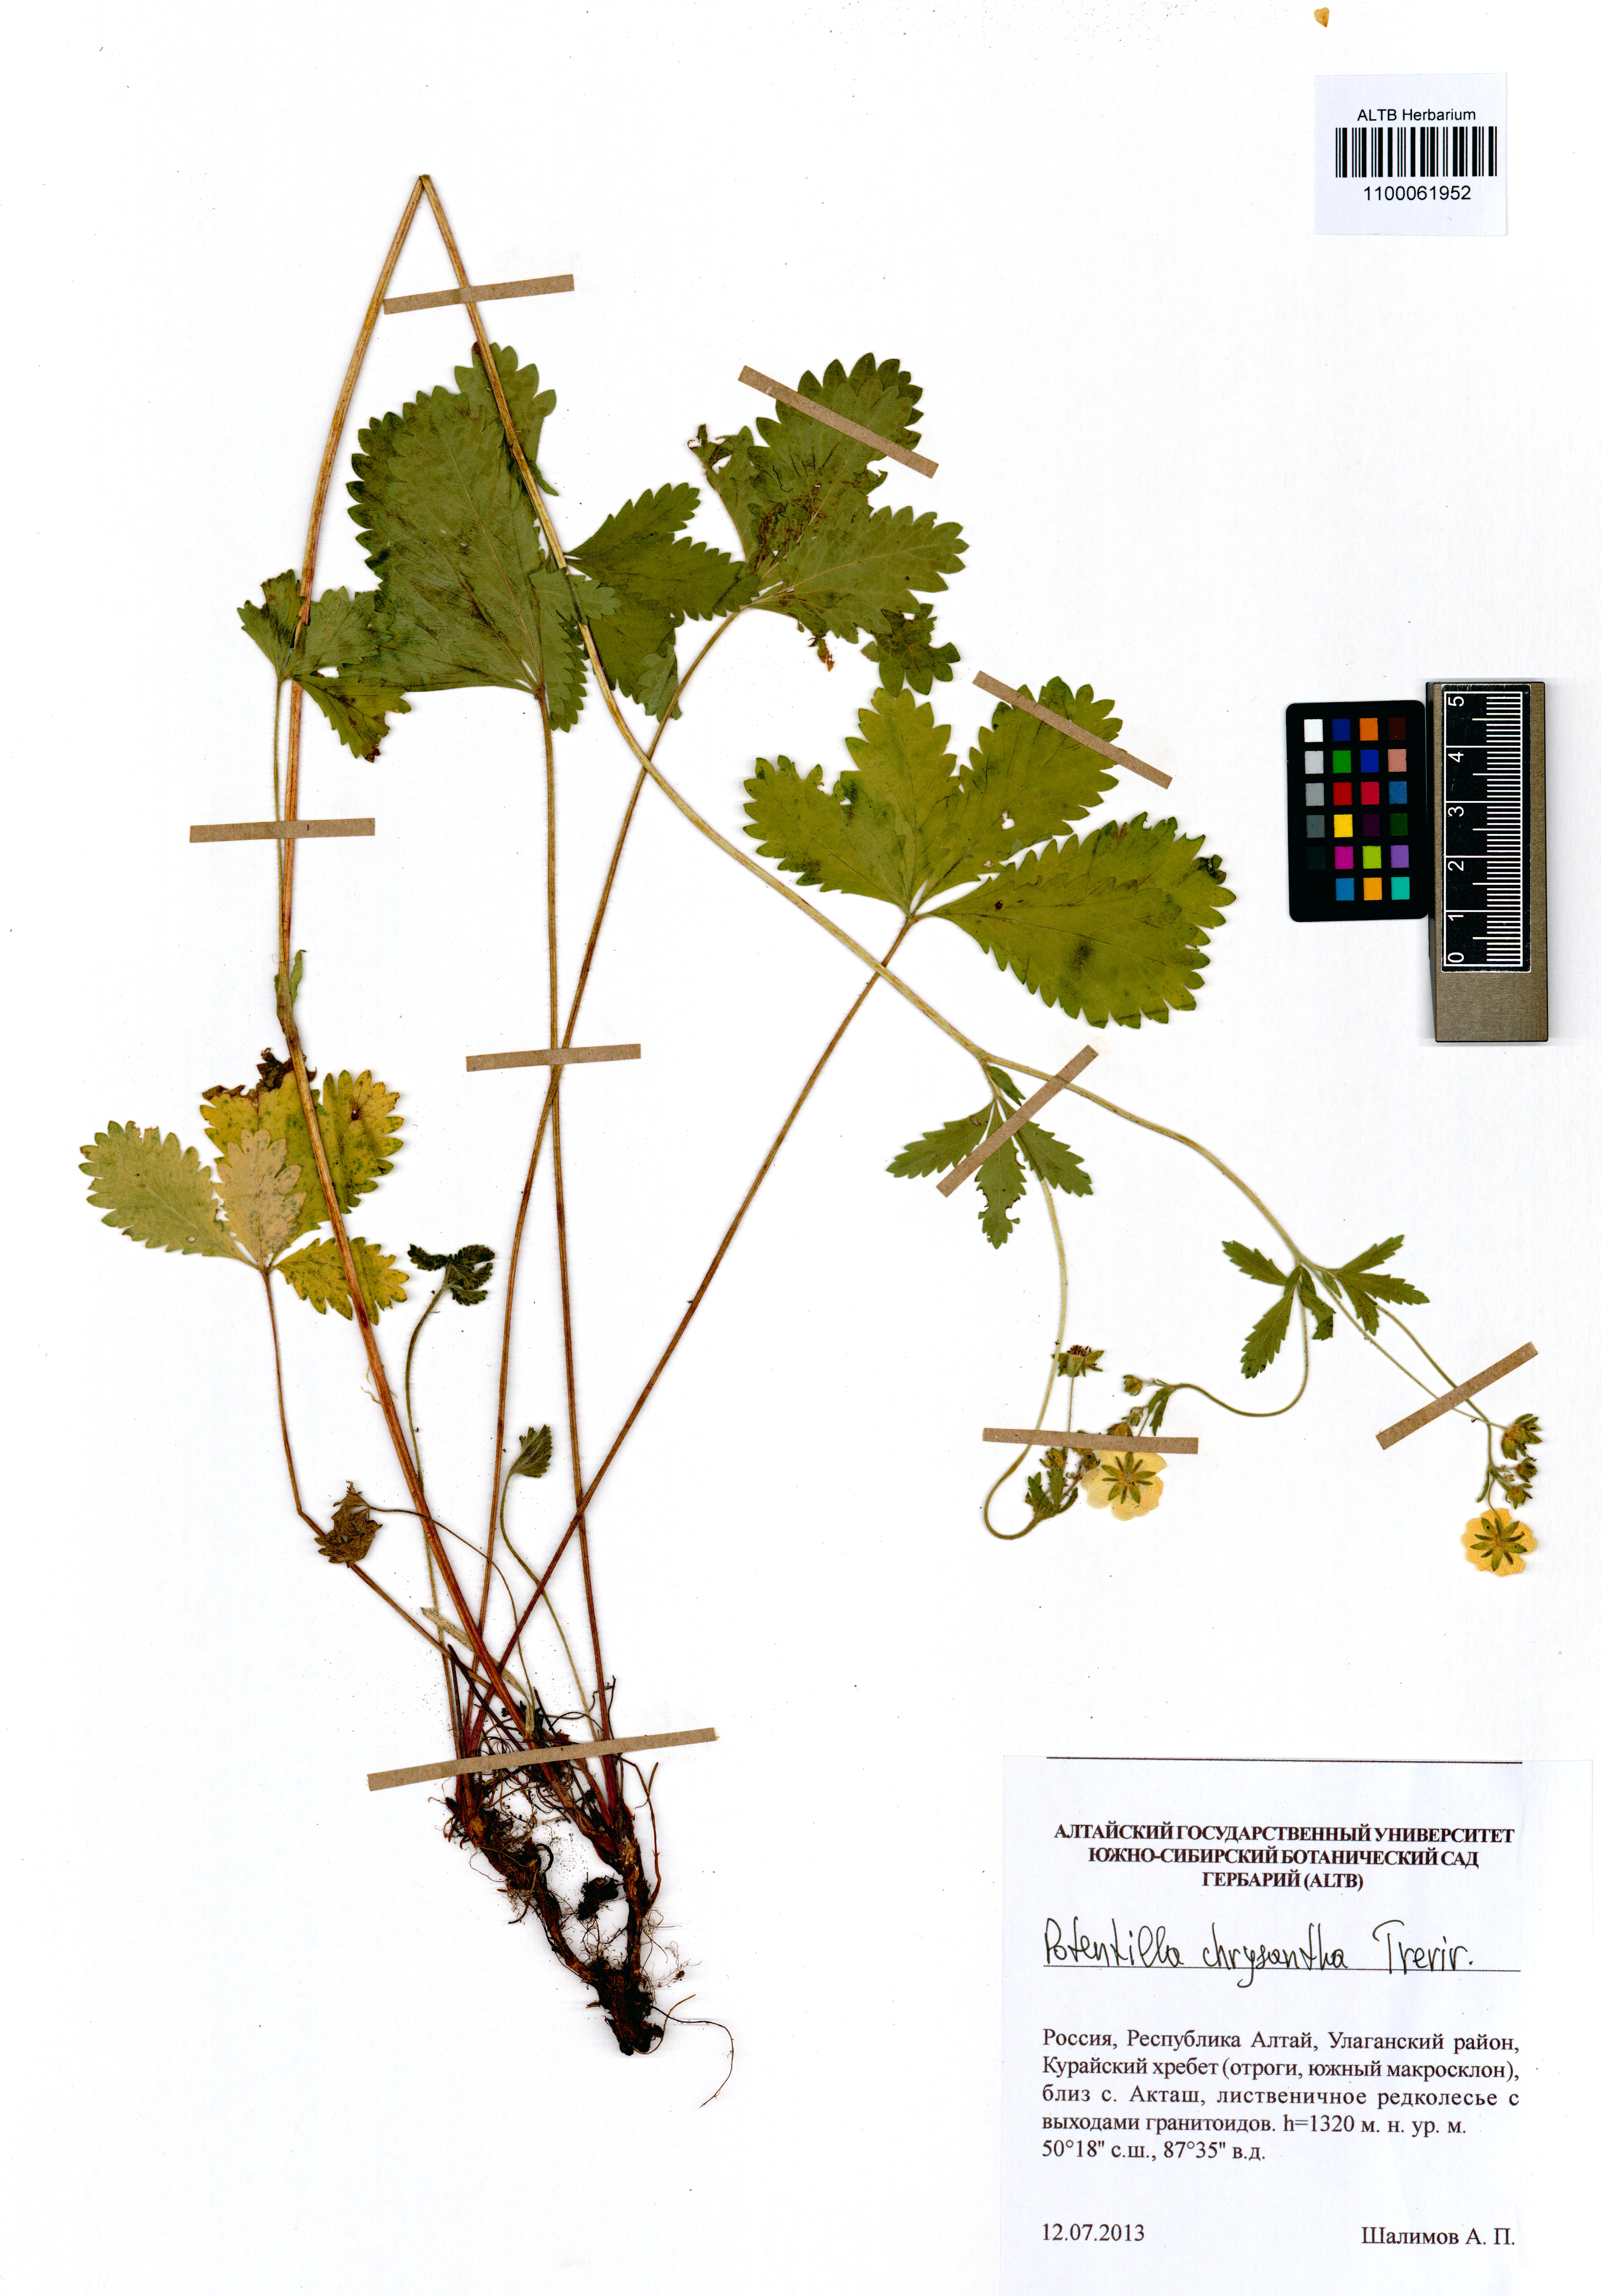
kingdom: Plantae
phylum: Tracheophyta
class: Magnoliopsida
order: Rosales
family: Rosaceae
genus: Potentilla
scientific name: Potentilla chrysantha
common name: Thuringian cinquefoil
